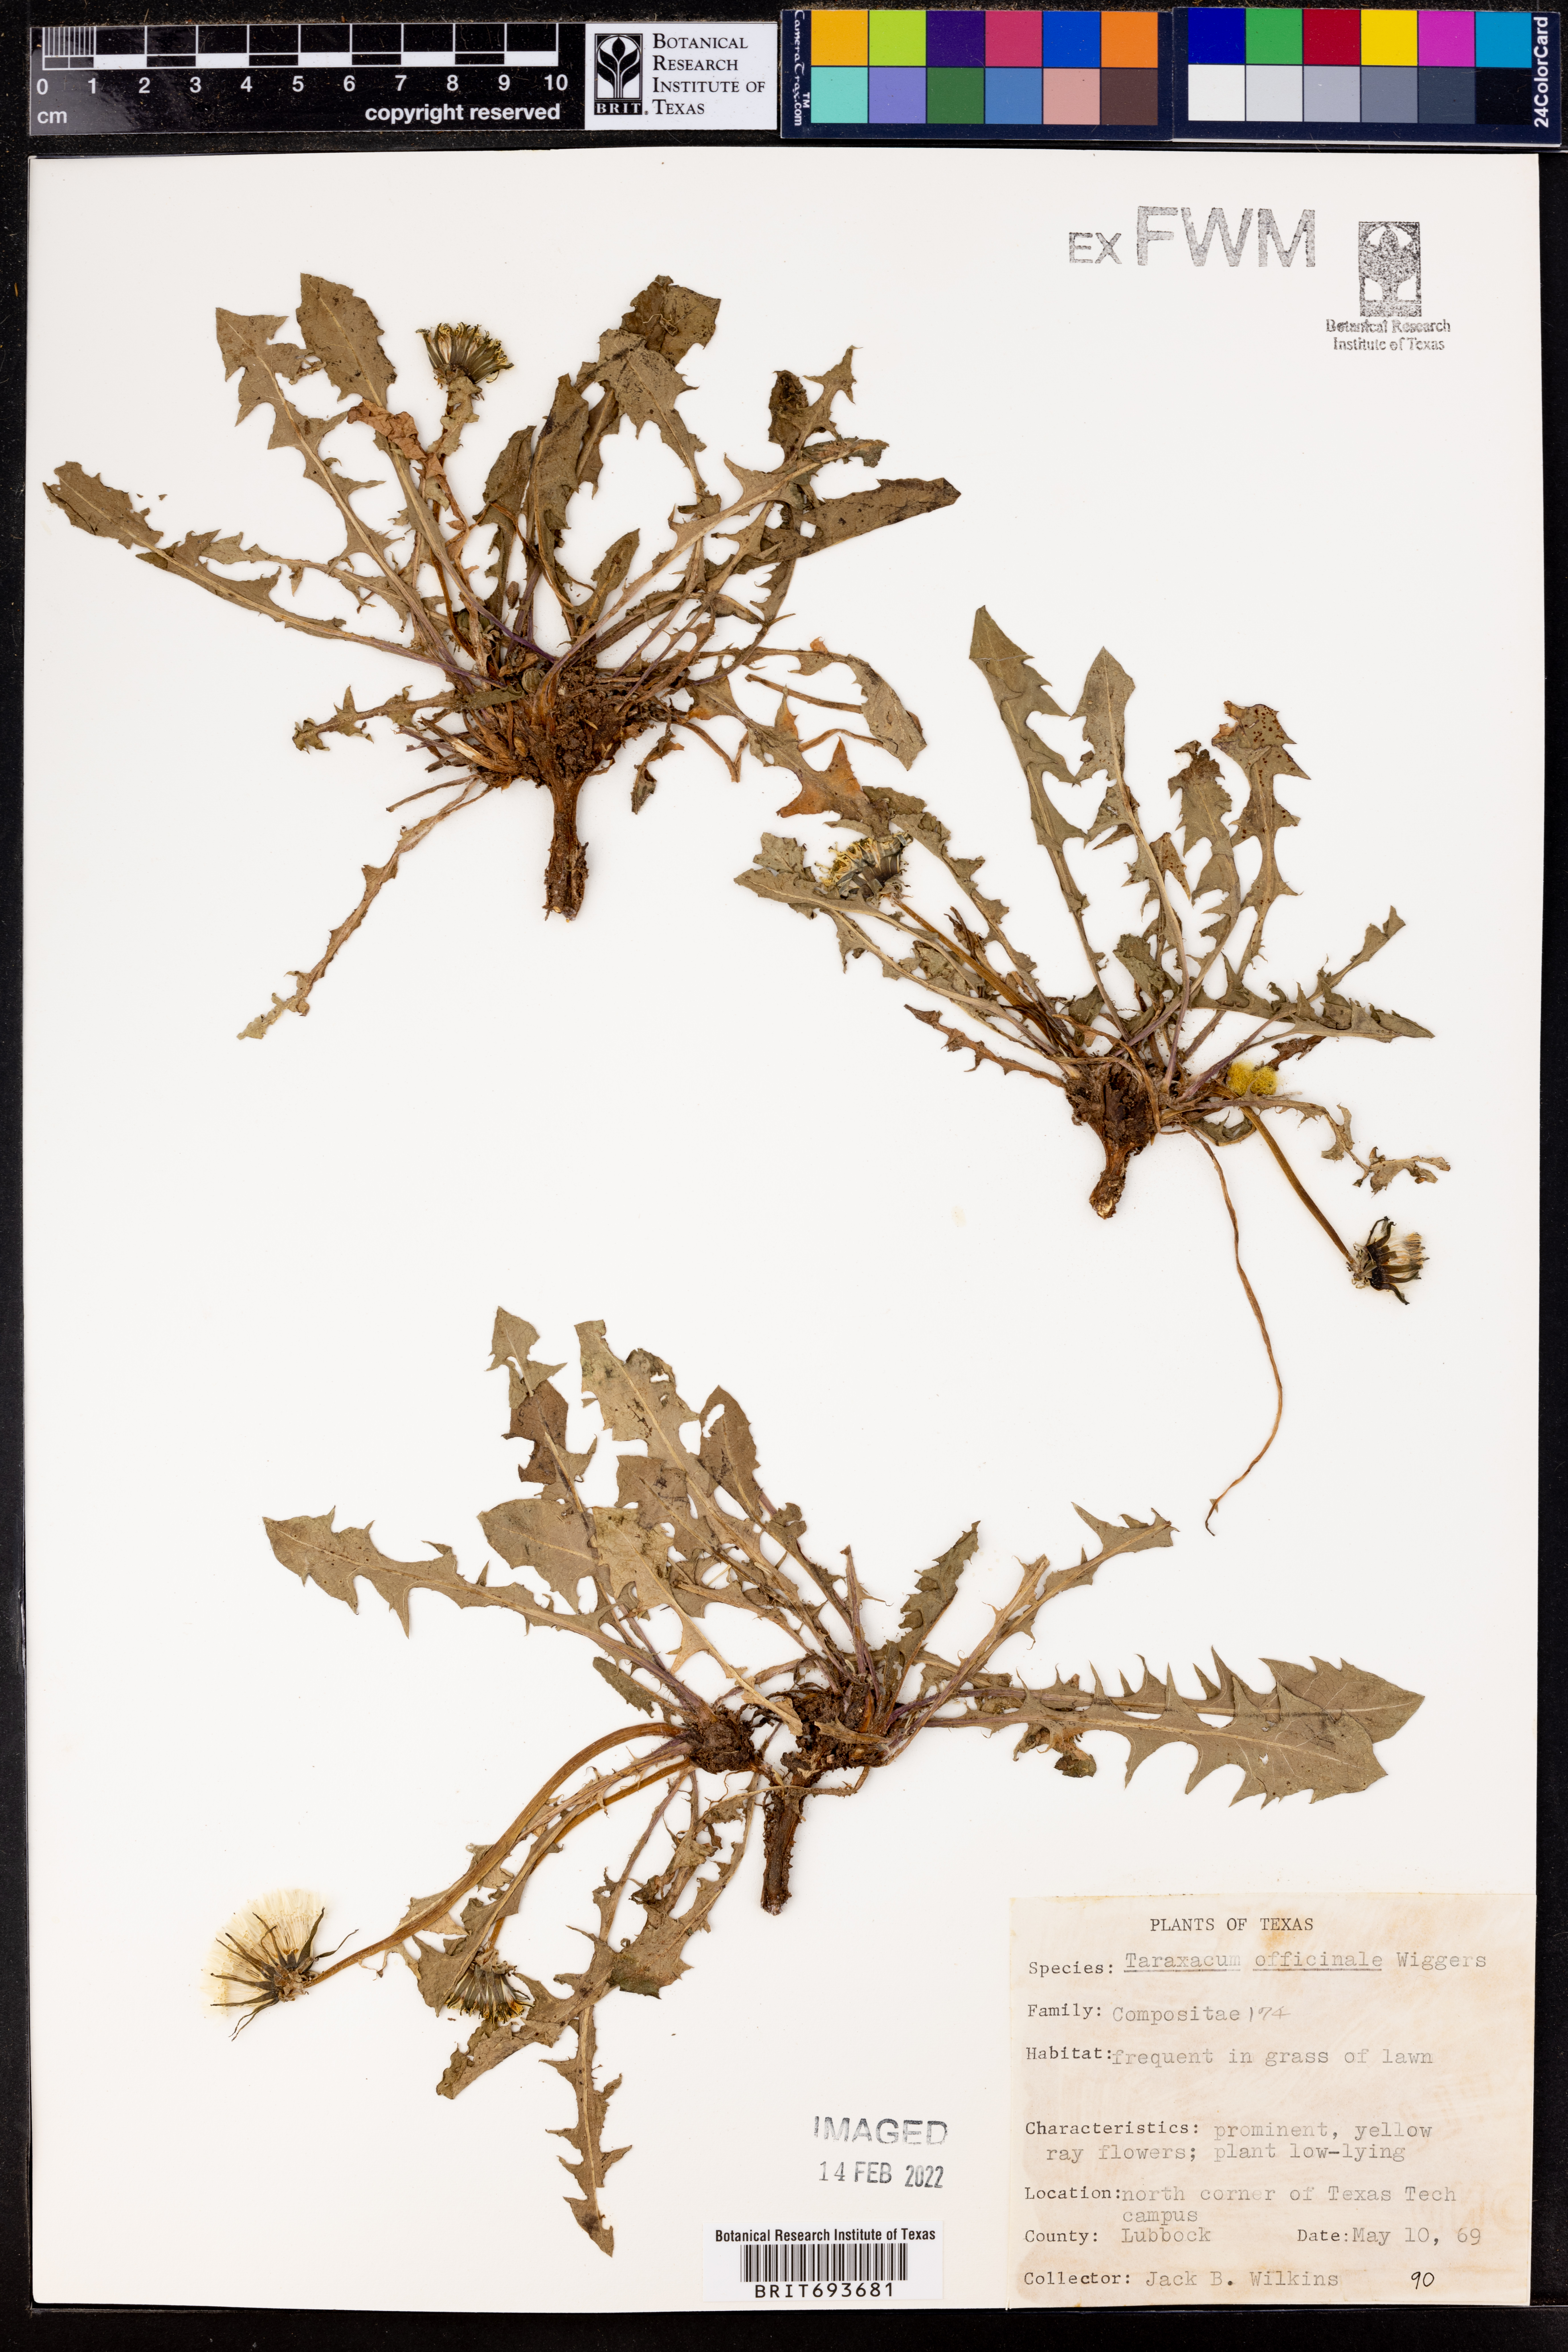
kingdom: Plantae
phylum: Tracheophyta
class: Magnoliopsida
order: Asterales
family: Asteraceae
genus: Taraxacum
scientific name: Taraxacum officinale
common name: Common dandelion
